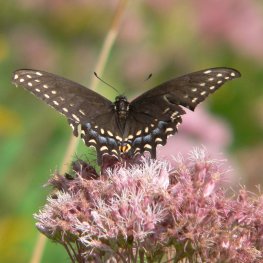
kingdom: Animalia
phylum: Arthropoda
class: Insecta
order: Lepidoptera
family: Papilionidae
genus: Papilio
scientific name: Papilio polyxenes
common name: Black Swallowtail
